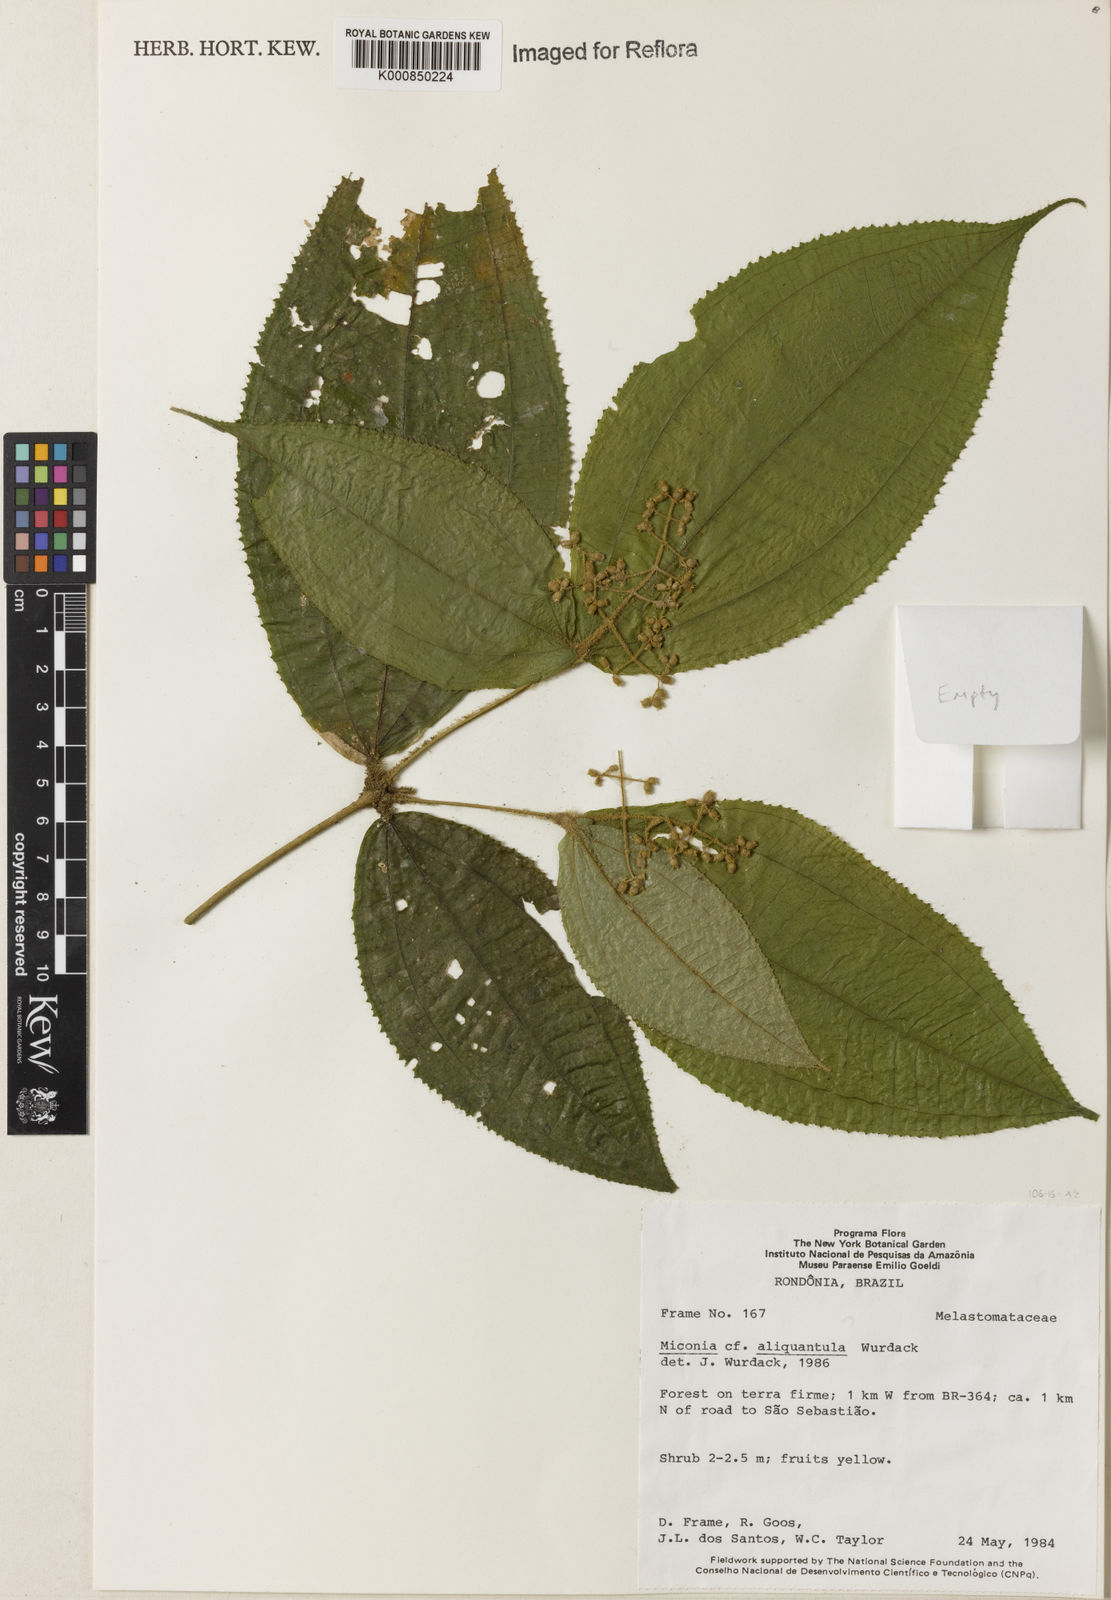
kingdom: Plantae
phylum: Tracheophyta
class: Magnoliopsida
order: Myrtales
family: Melastomataceae
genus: Miconia
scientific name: Miconia aliquantula
